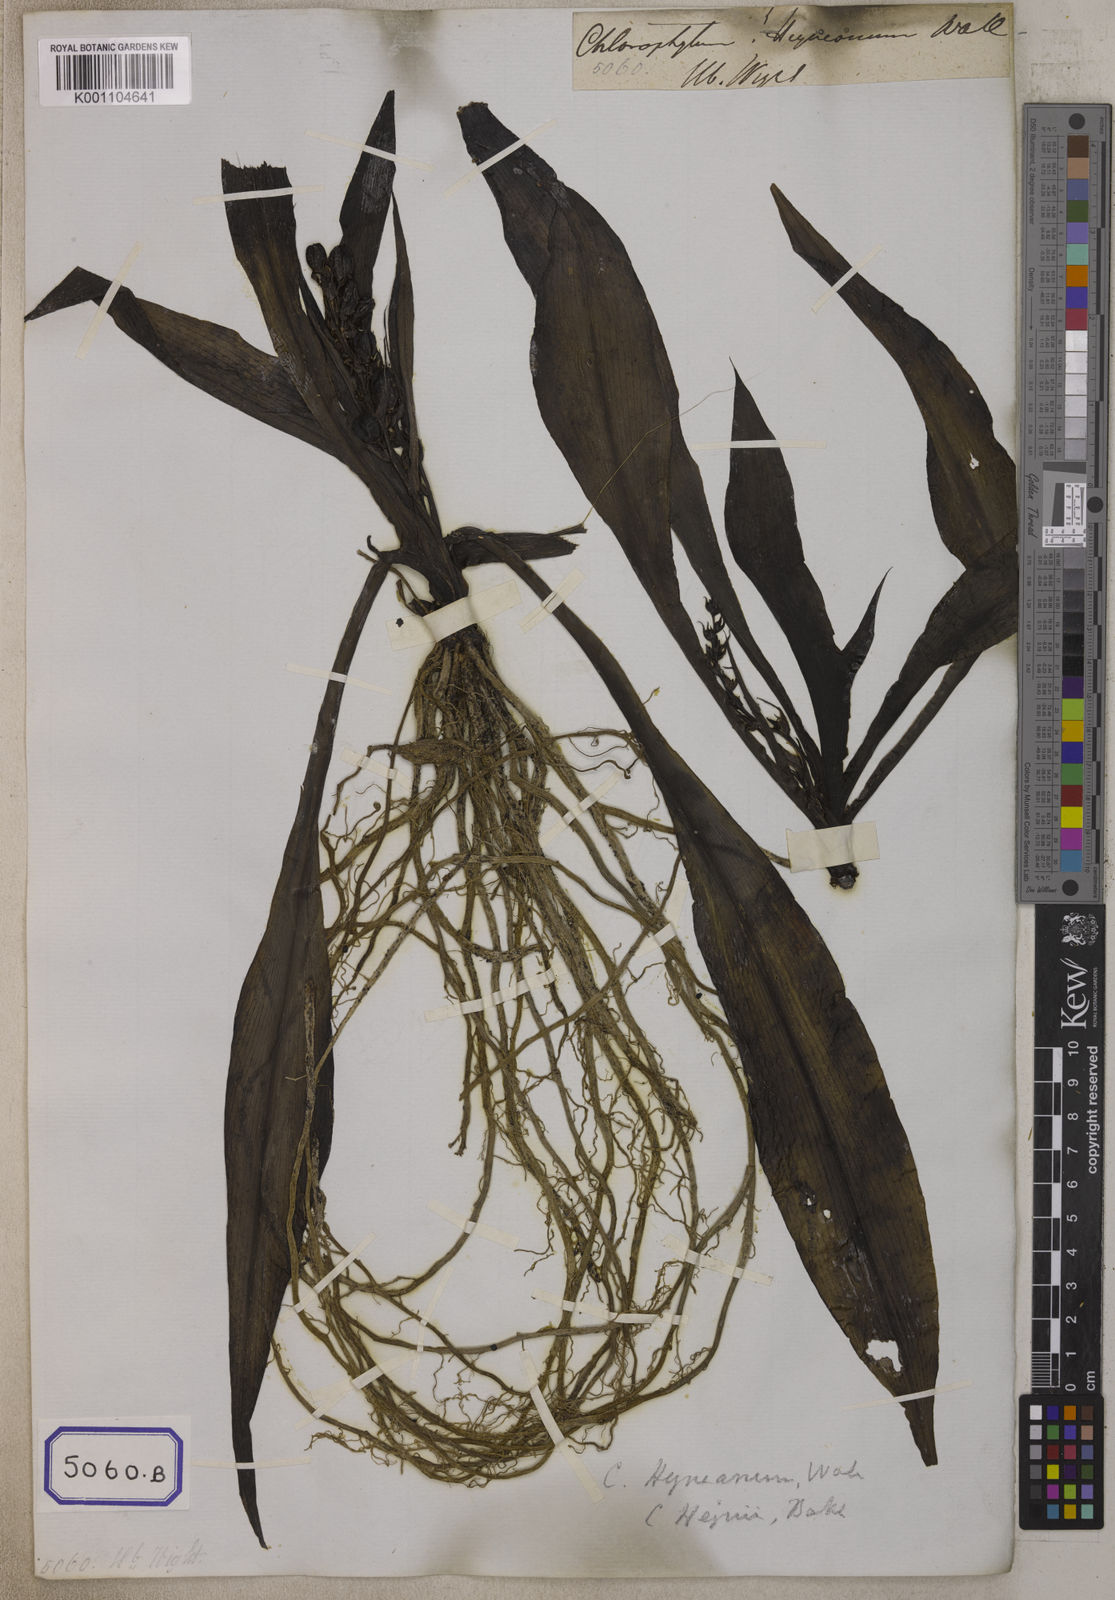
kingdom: Plantae
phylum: Tracheophyta
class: Liliopsida
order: Asparagales
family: Asparagaceae
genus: Chlorophytum
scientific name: Chlorophytum
